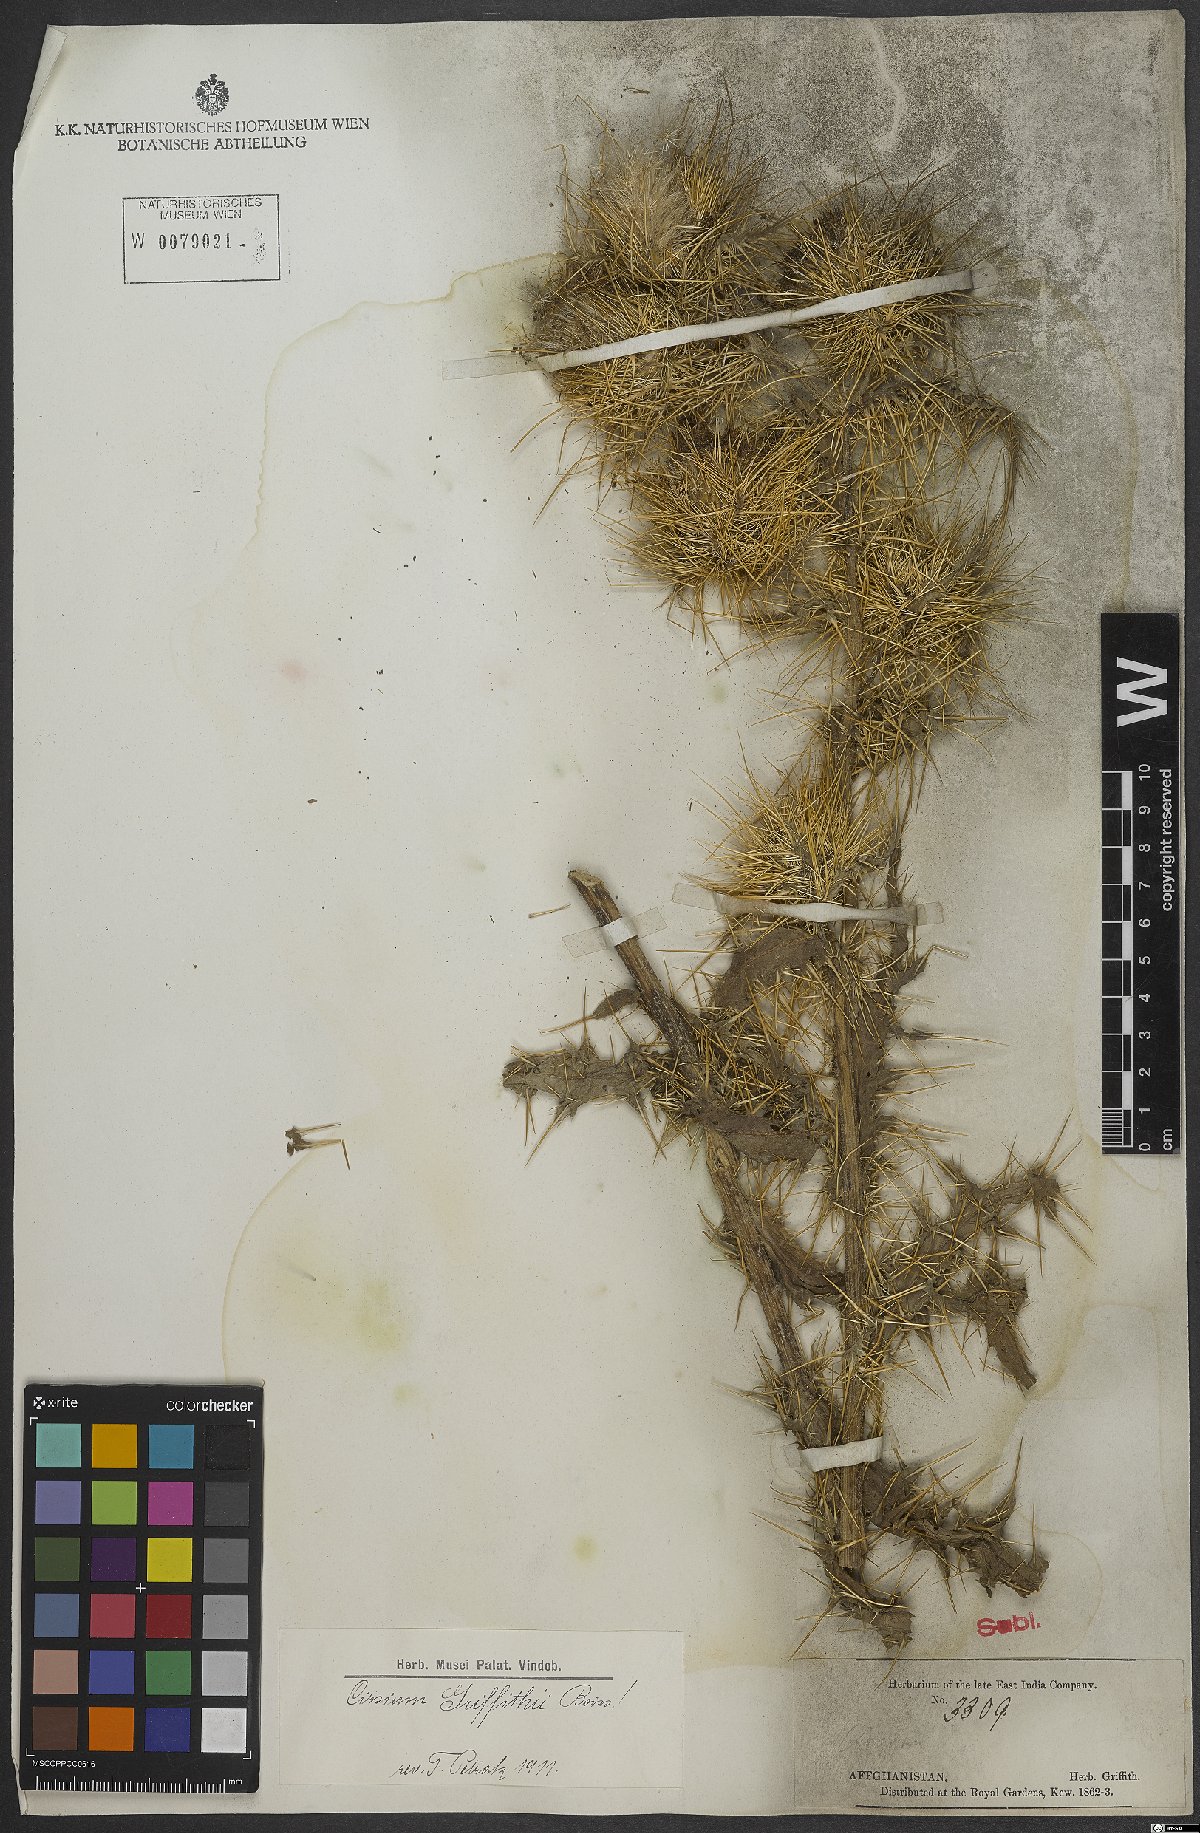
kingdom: Plantae
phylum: Tracheophyta
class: Magnoliopsida
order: Asterales
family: Asteraceae
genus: Lophiolepis
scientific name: Lophiolepis griffithii
